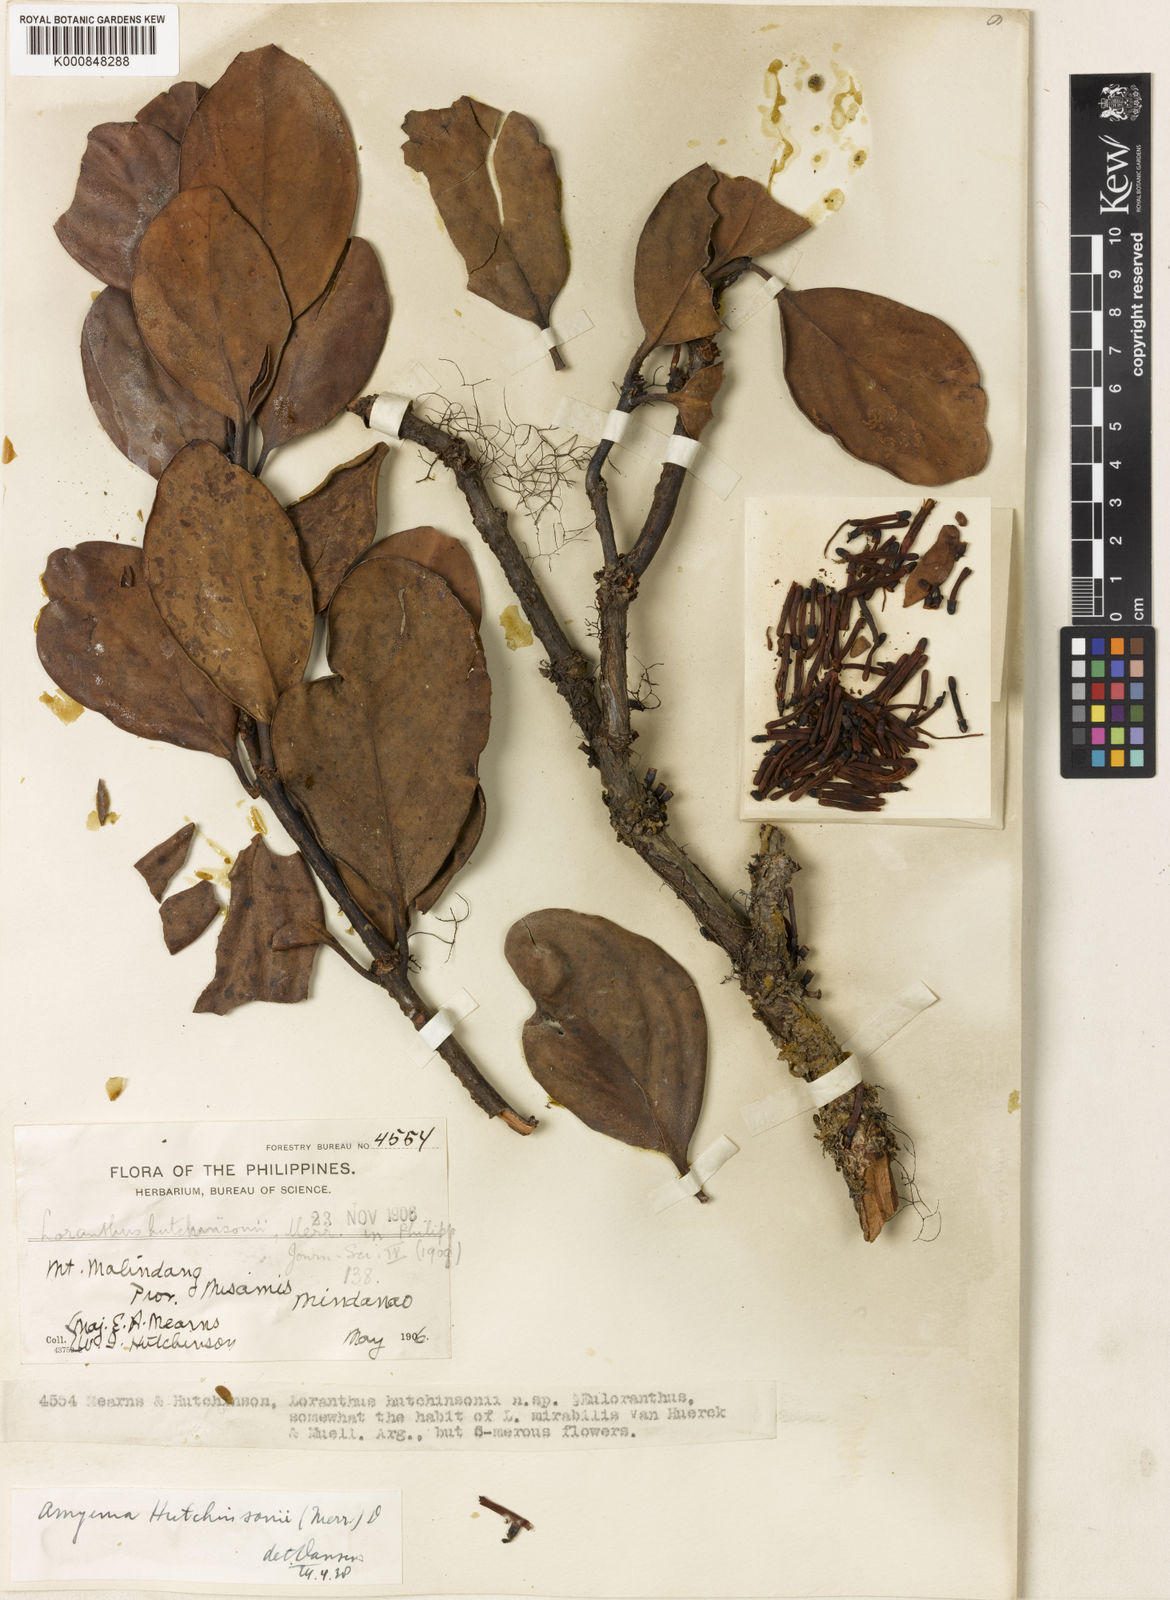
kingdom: Plantae
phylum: Tracheophyta
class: Magnoliopsida
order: Santalales
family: Loranthaceae
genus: Amyema
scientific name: Amyema beccarii
